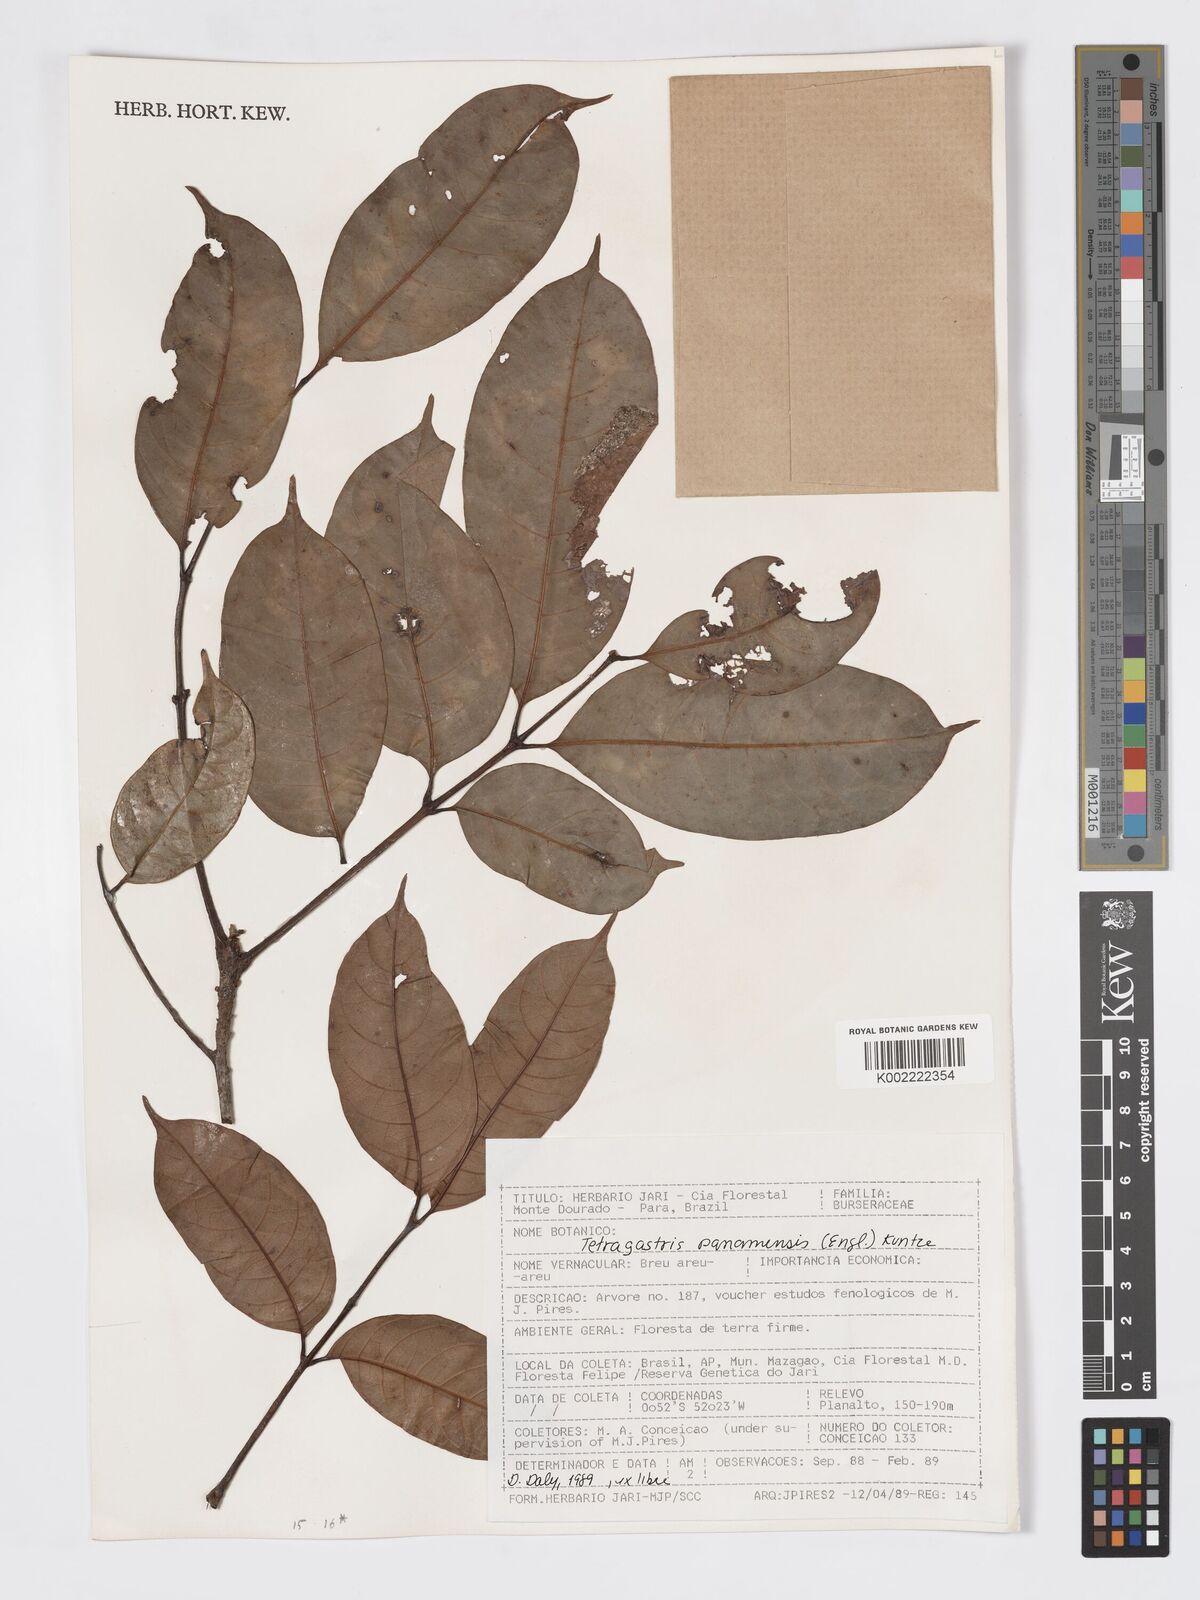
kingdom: Plantae
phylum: Tracheophyta
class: Magnoliopsida
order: Sapindales
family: Burseraceae
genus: Tetragastris
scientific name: Tetragastris panamensis
